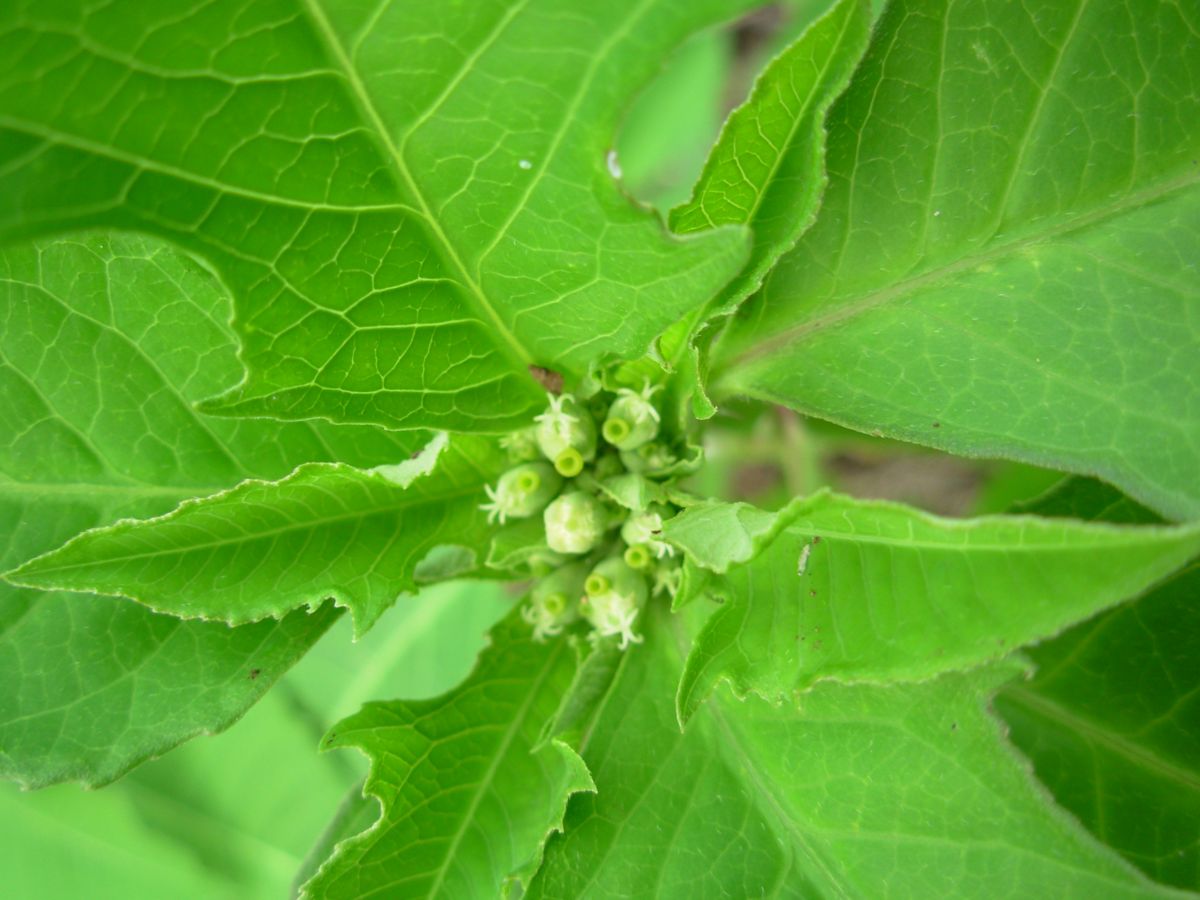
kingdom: Plantae
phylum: Tracheophyta
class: Magnoliopsida
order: Malpighiales
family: Euphorbiaceae
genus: Euphorbia
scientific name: Euphorbia hyssopifolia
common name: Hyssopleaf sandmat
